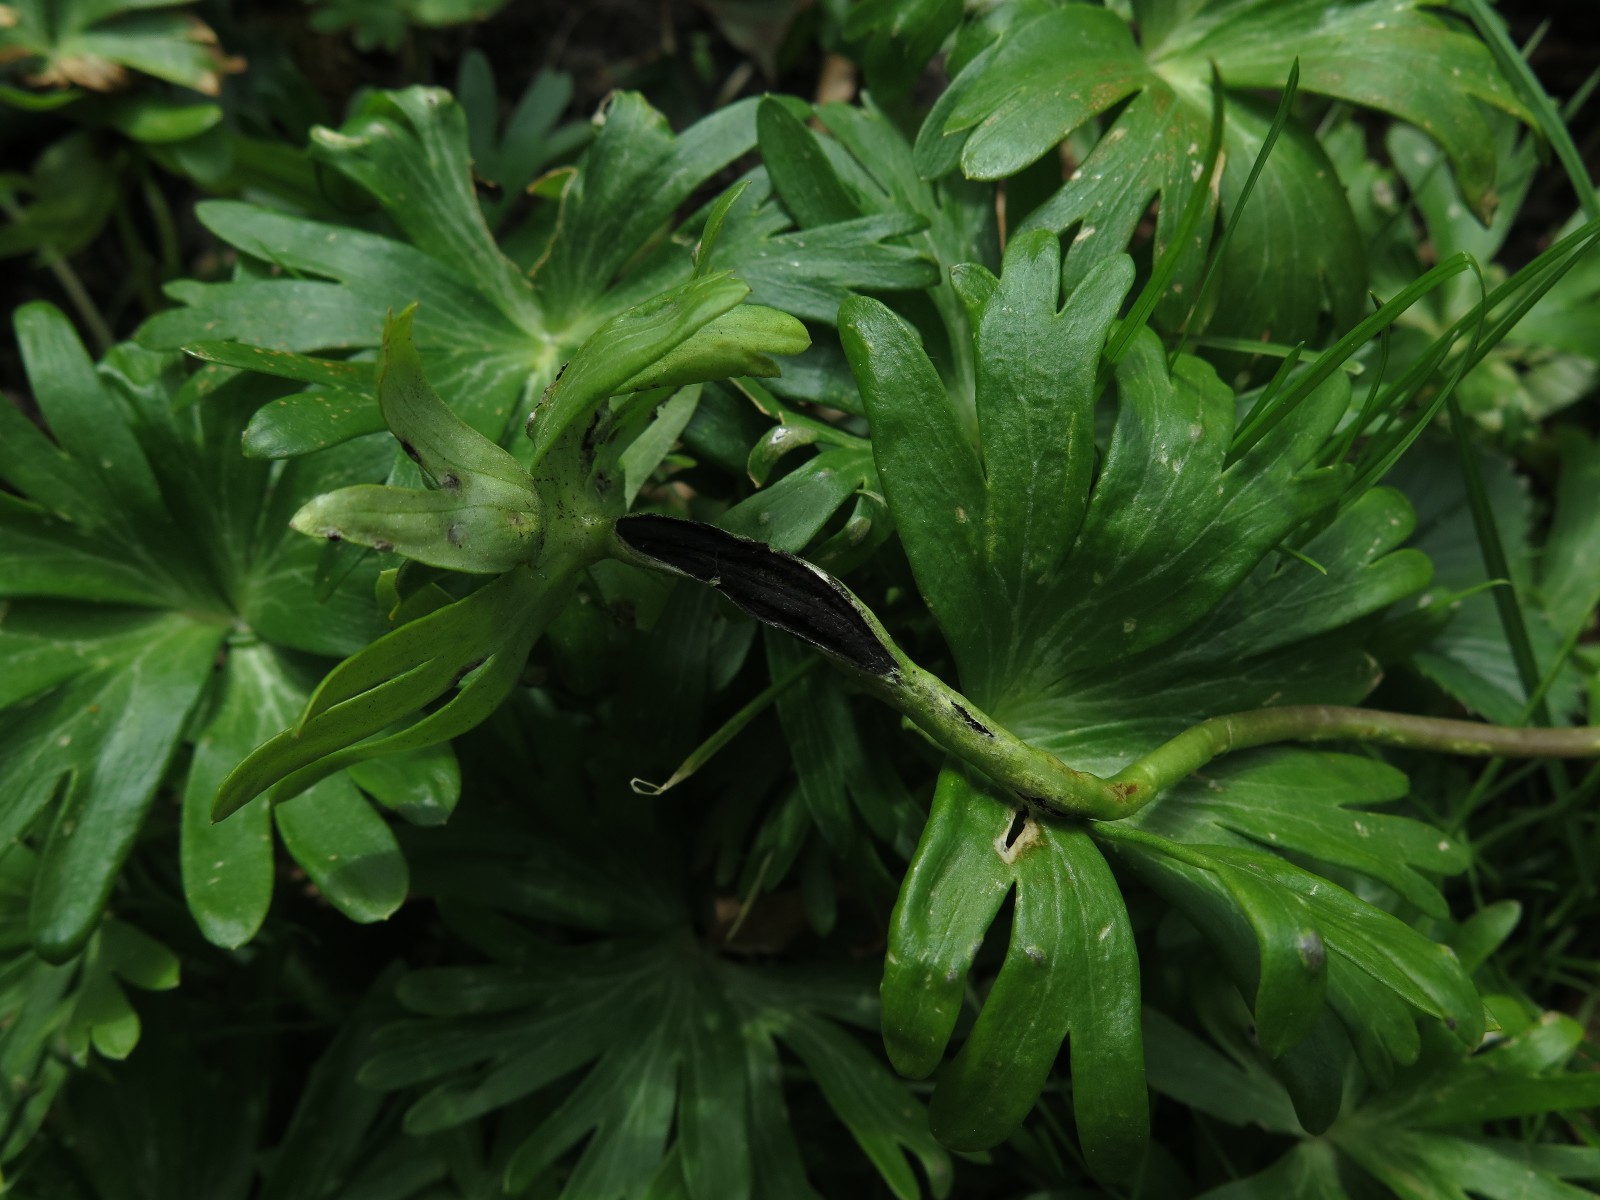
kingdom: Fungi
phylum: Basidiomycota
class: Ustilaginomycetes
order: Urocystidales
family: Urocystidaceae
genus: Urocystis
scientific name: Urocystis eranthidis
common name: erantis-brand
